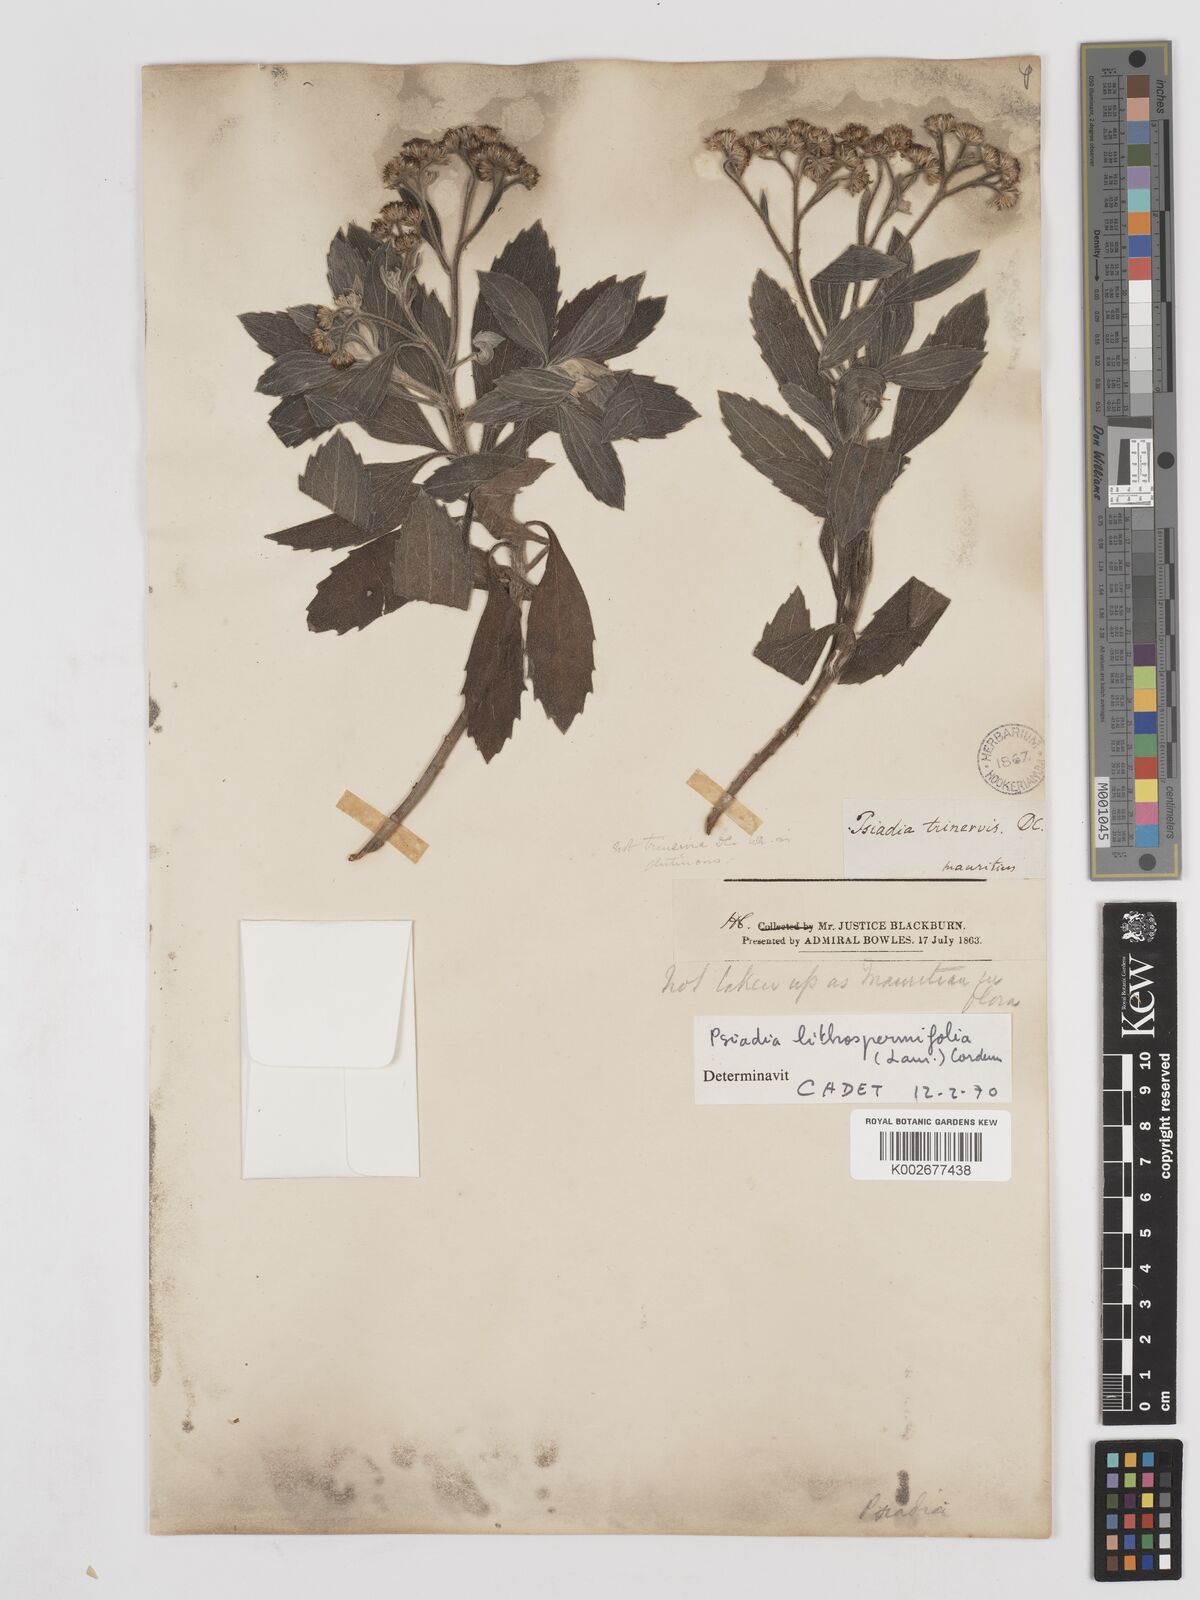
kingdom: Plantae
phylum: Tracheophyta
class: Magnoliopsida
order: Asterales
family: Asteraceae
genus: Psiadia
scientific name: Psiadia lithospermifolia
